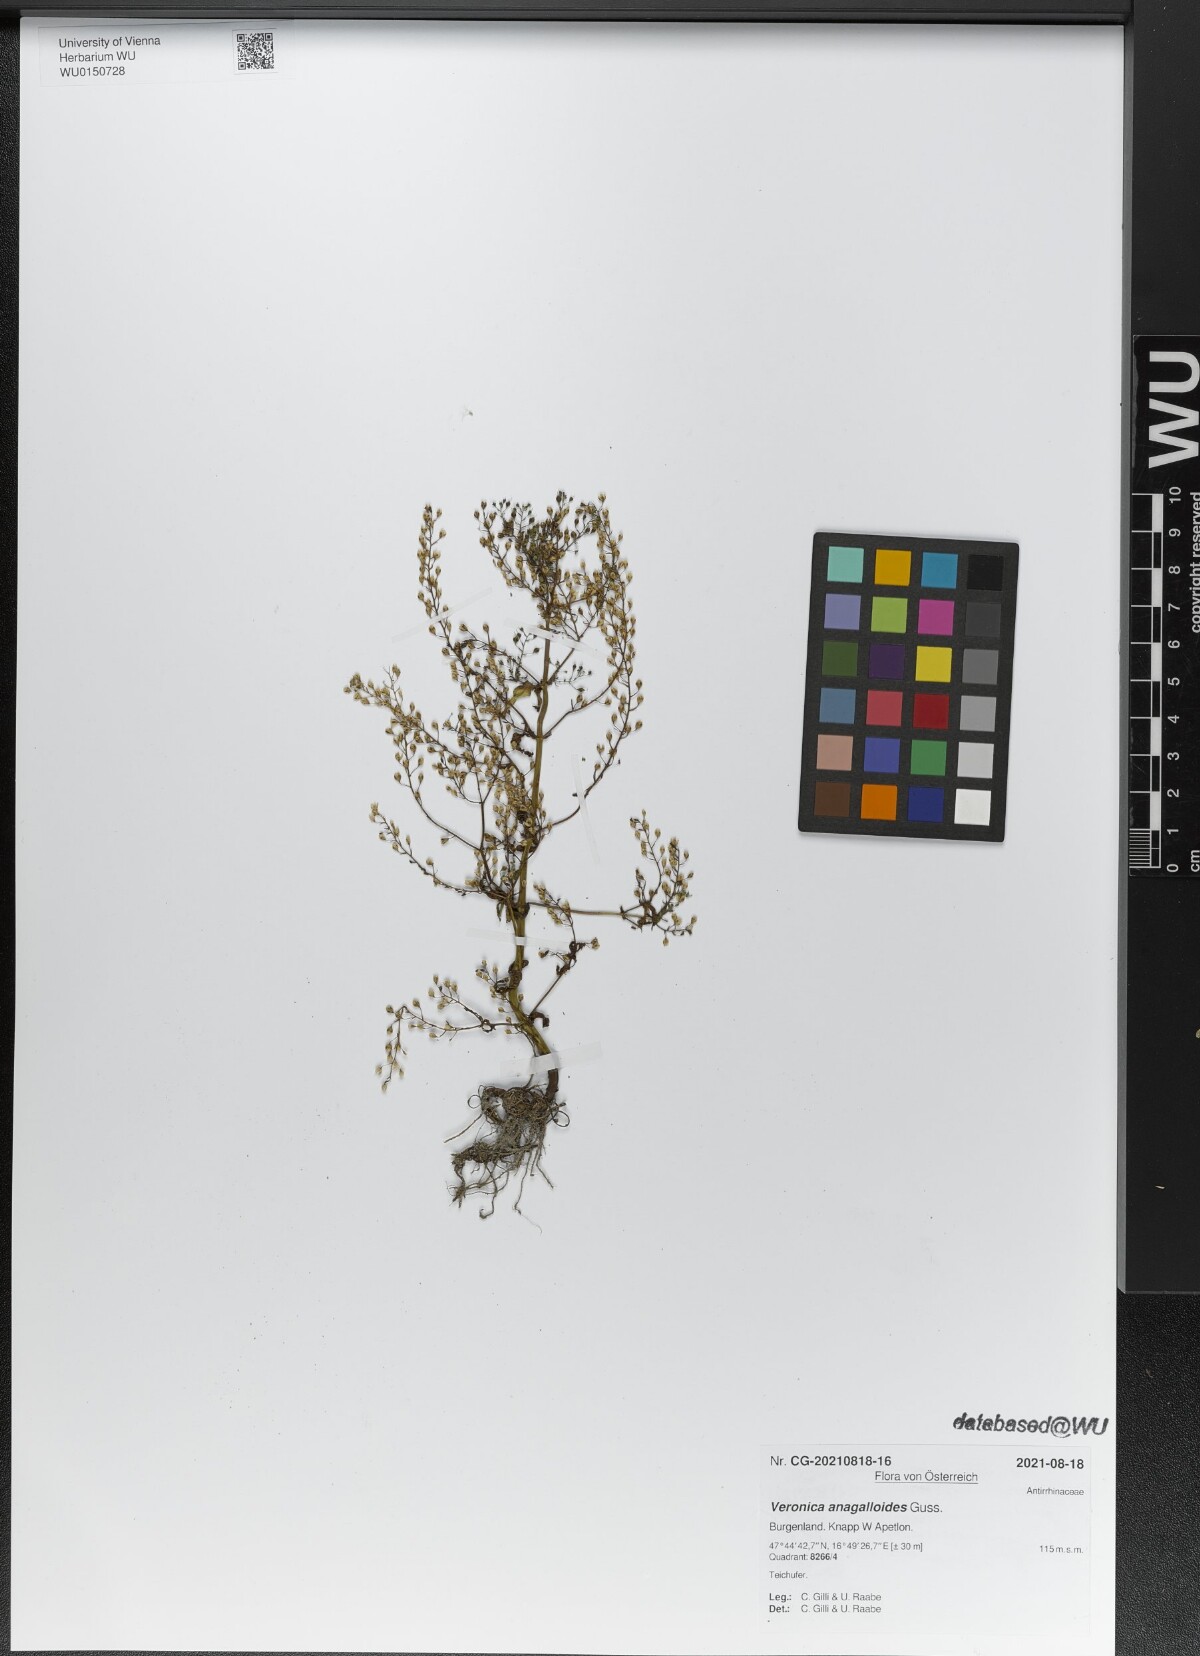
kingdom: Plantae
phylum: Tracheophyta
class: Magnoliopsida
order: Lamiales
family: Plantaginaceae
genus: Veronica
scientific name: Veronica anagalloides
